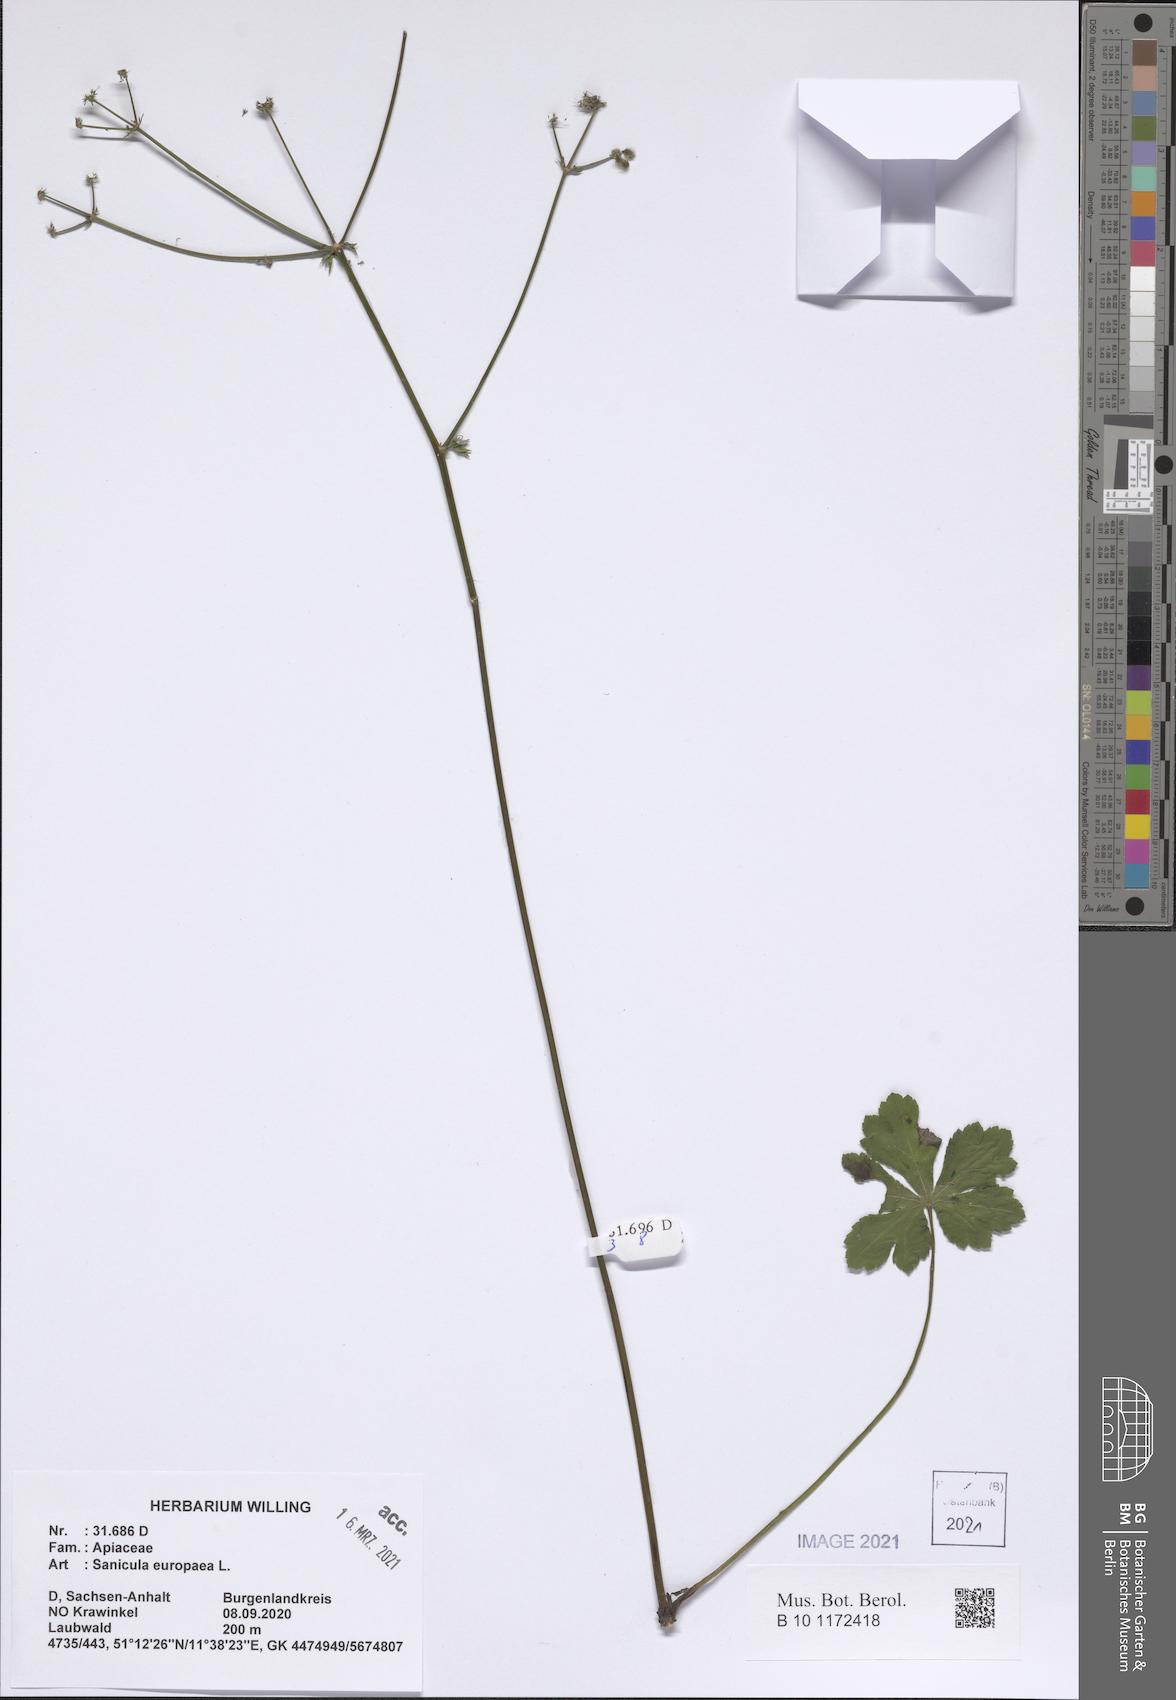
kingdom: Plantae
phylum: Tracheophyta
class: Magnoliopsida
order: Apiales
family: Apiaceae
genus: Sanicula
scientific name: Sanicula europaea
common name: Sanicle
